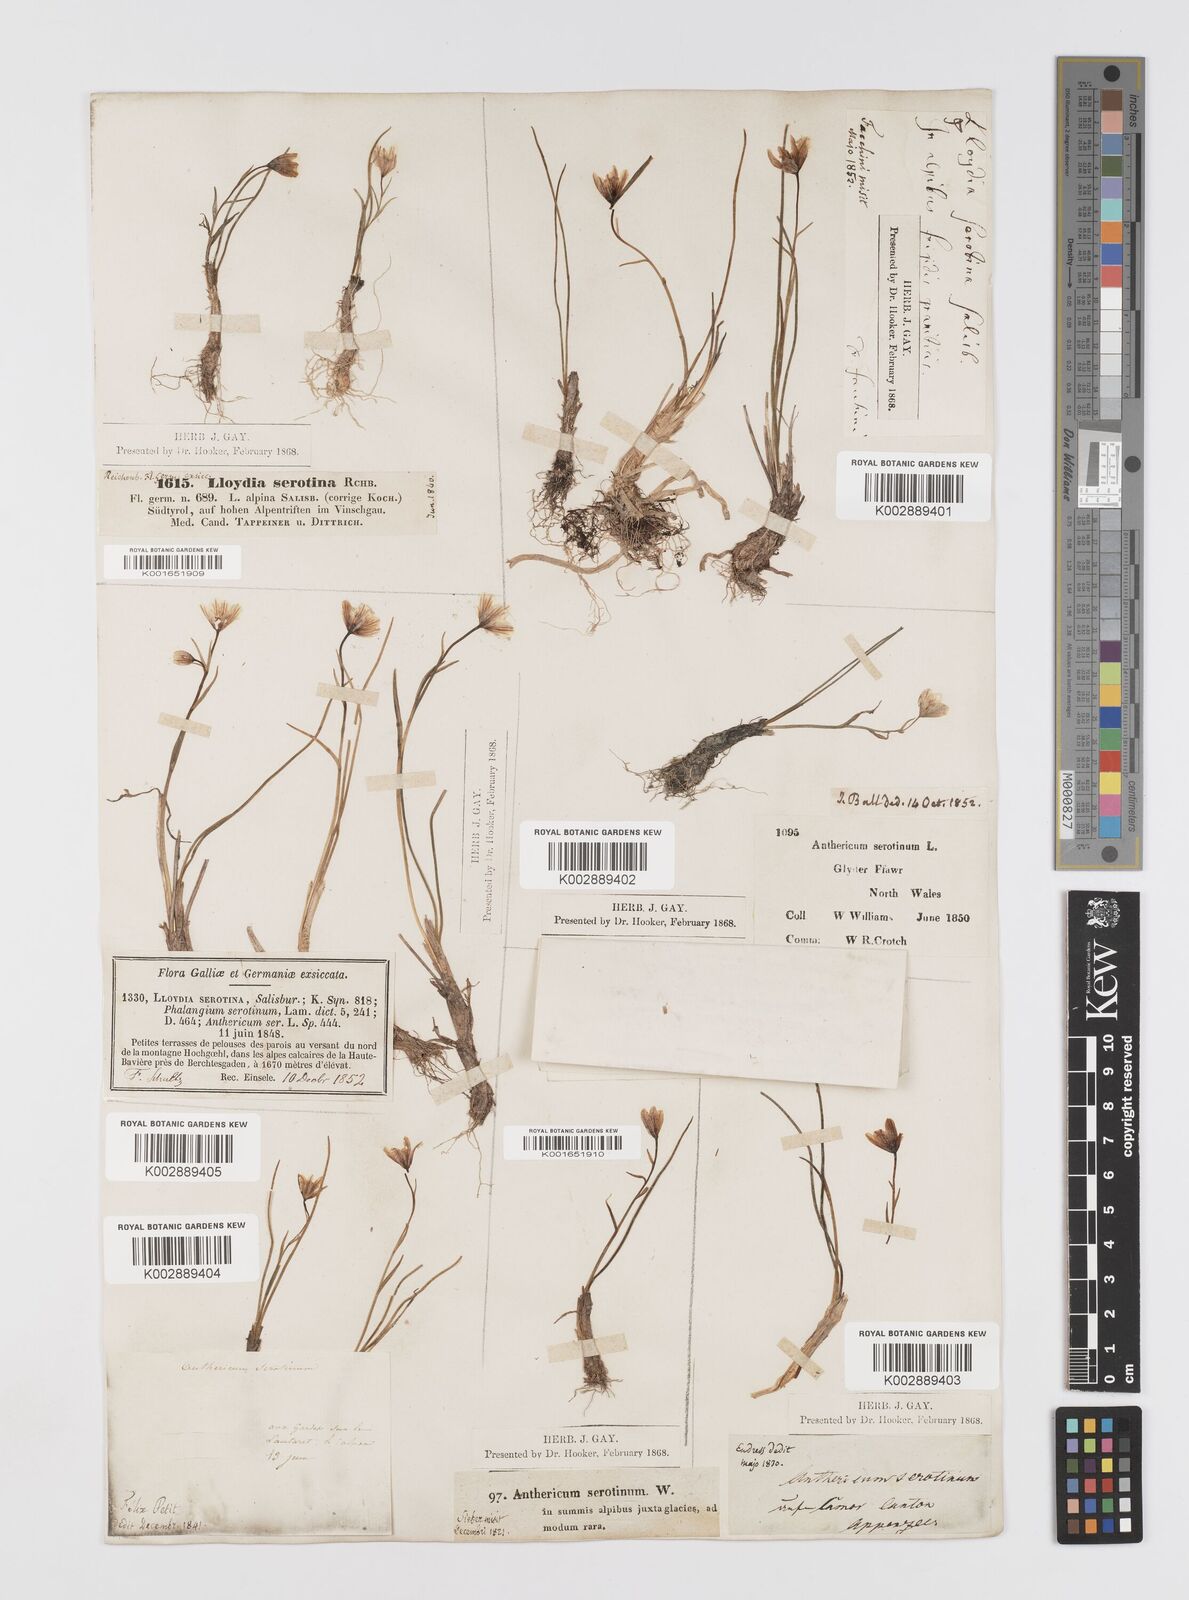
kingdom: Plantae
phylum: Tracheophyta
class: Liliopsida
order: Liliales
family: Liliaceae
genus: Gagea
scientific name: Gagea
